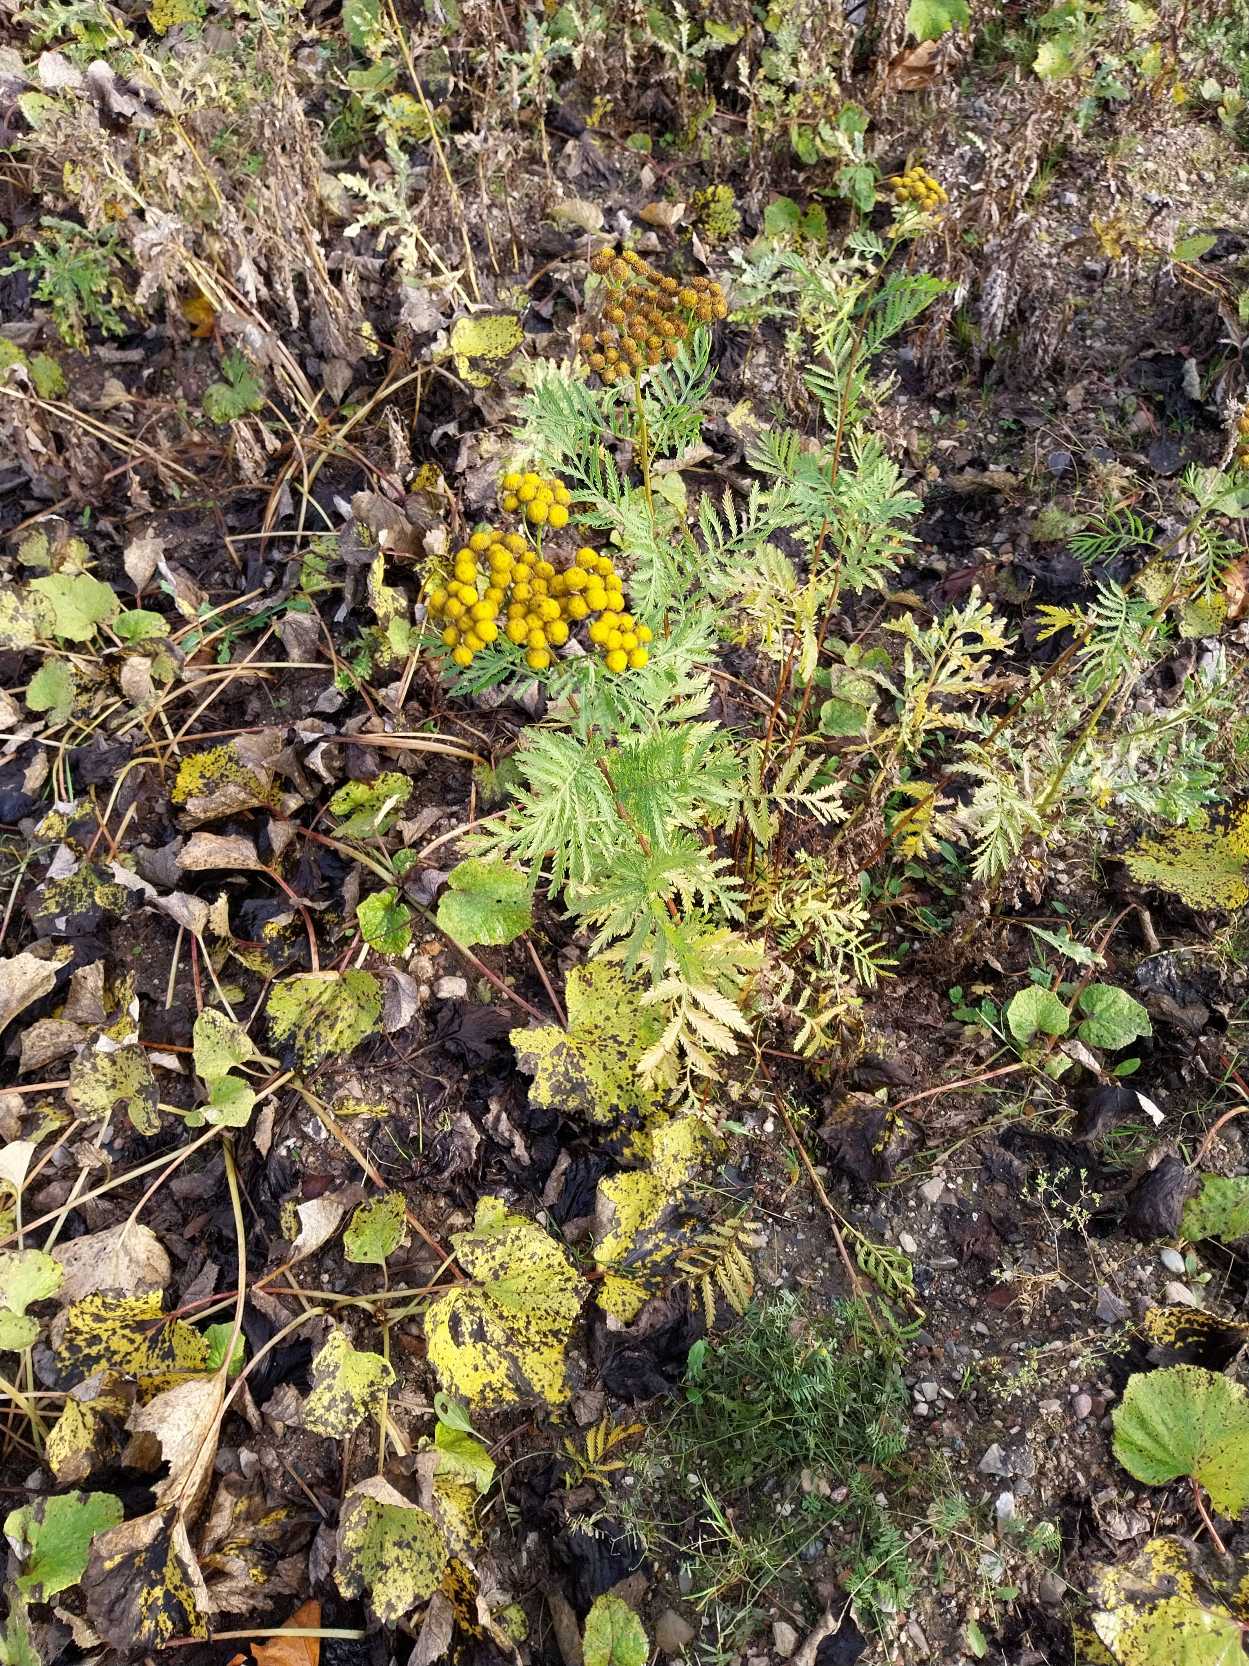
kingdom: Plantae
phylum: Tracheophyta
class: Magnoliopsida
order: Asterales
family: Asteraceae
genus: Tanacetum
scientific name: Tanacetum vulgare
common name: Rejnfan
